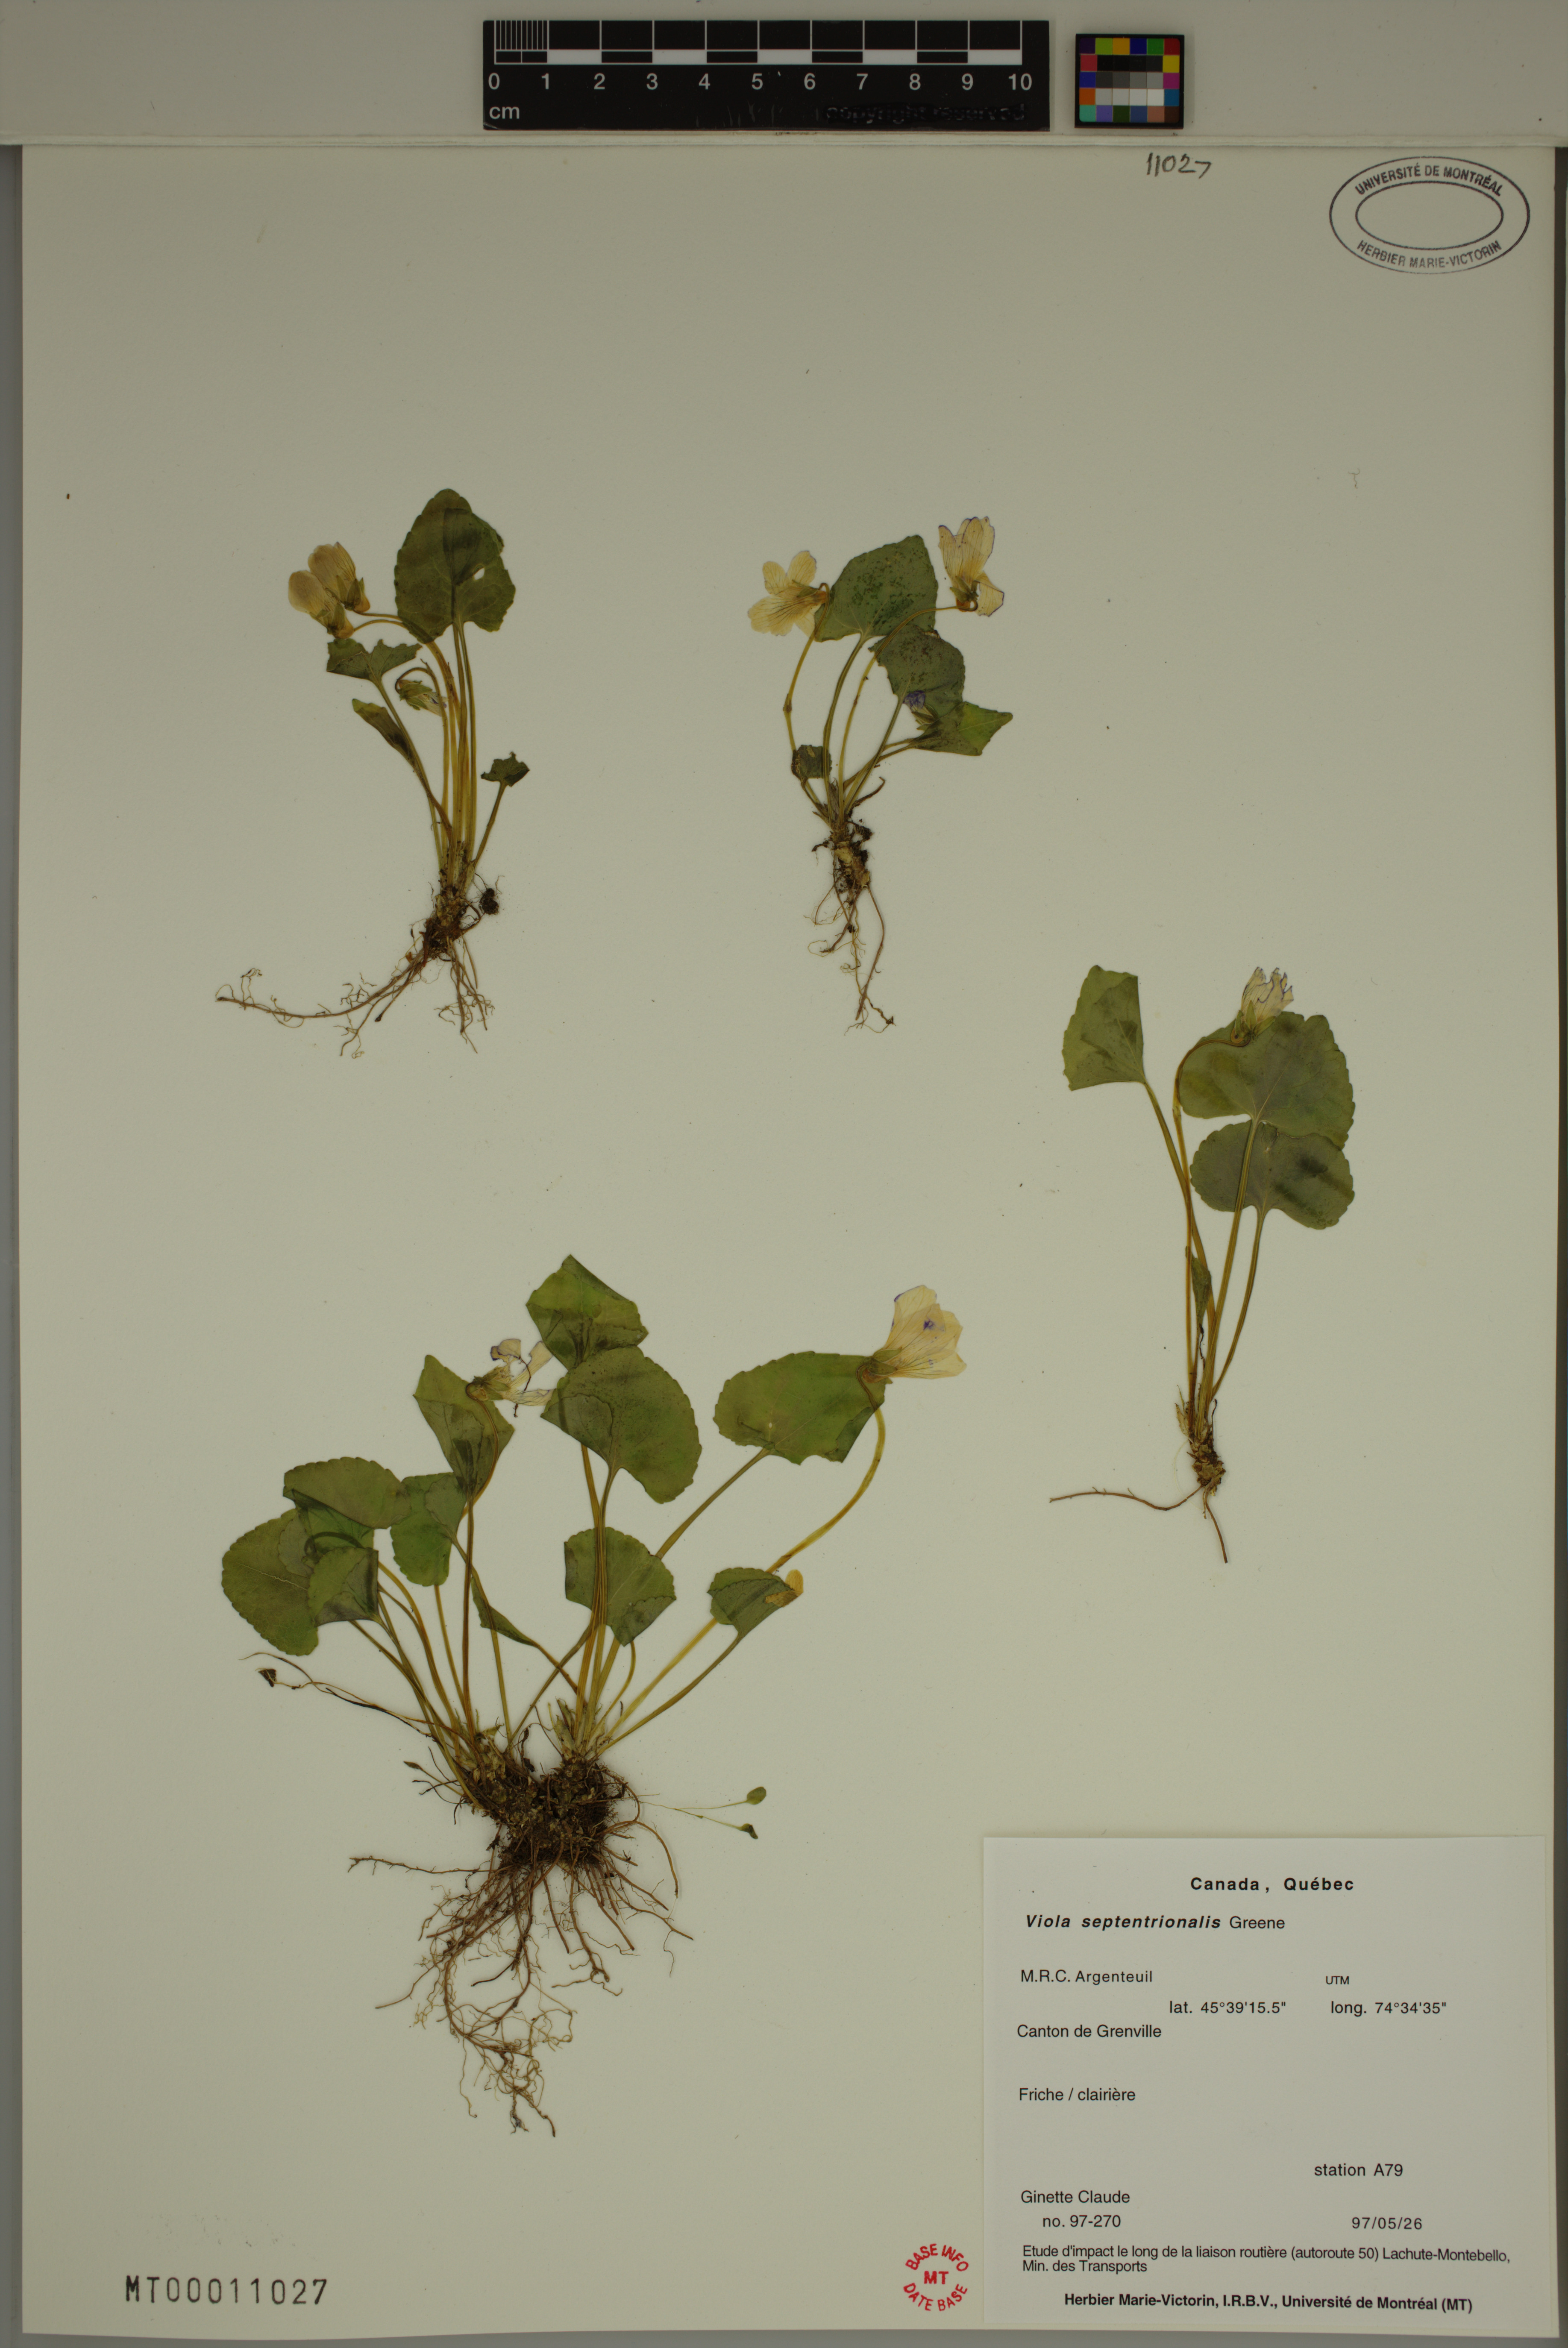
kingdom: Plantae
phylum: Tracheophyta
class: Magnoliopsida
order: Malpighiales
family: Violaceae
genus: Viola
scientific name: Viola sororia
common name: Dooryard violet
